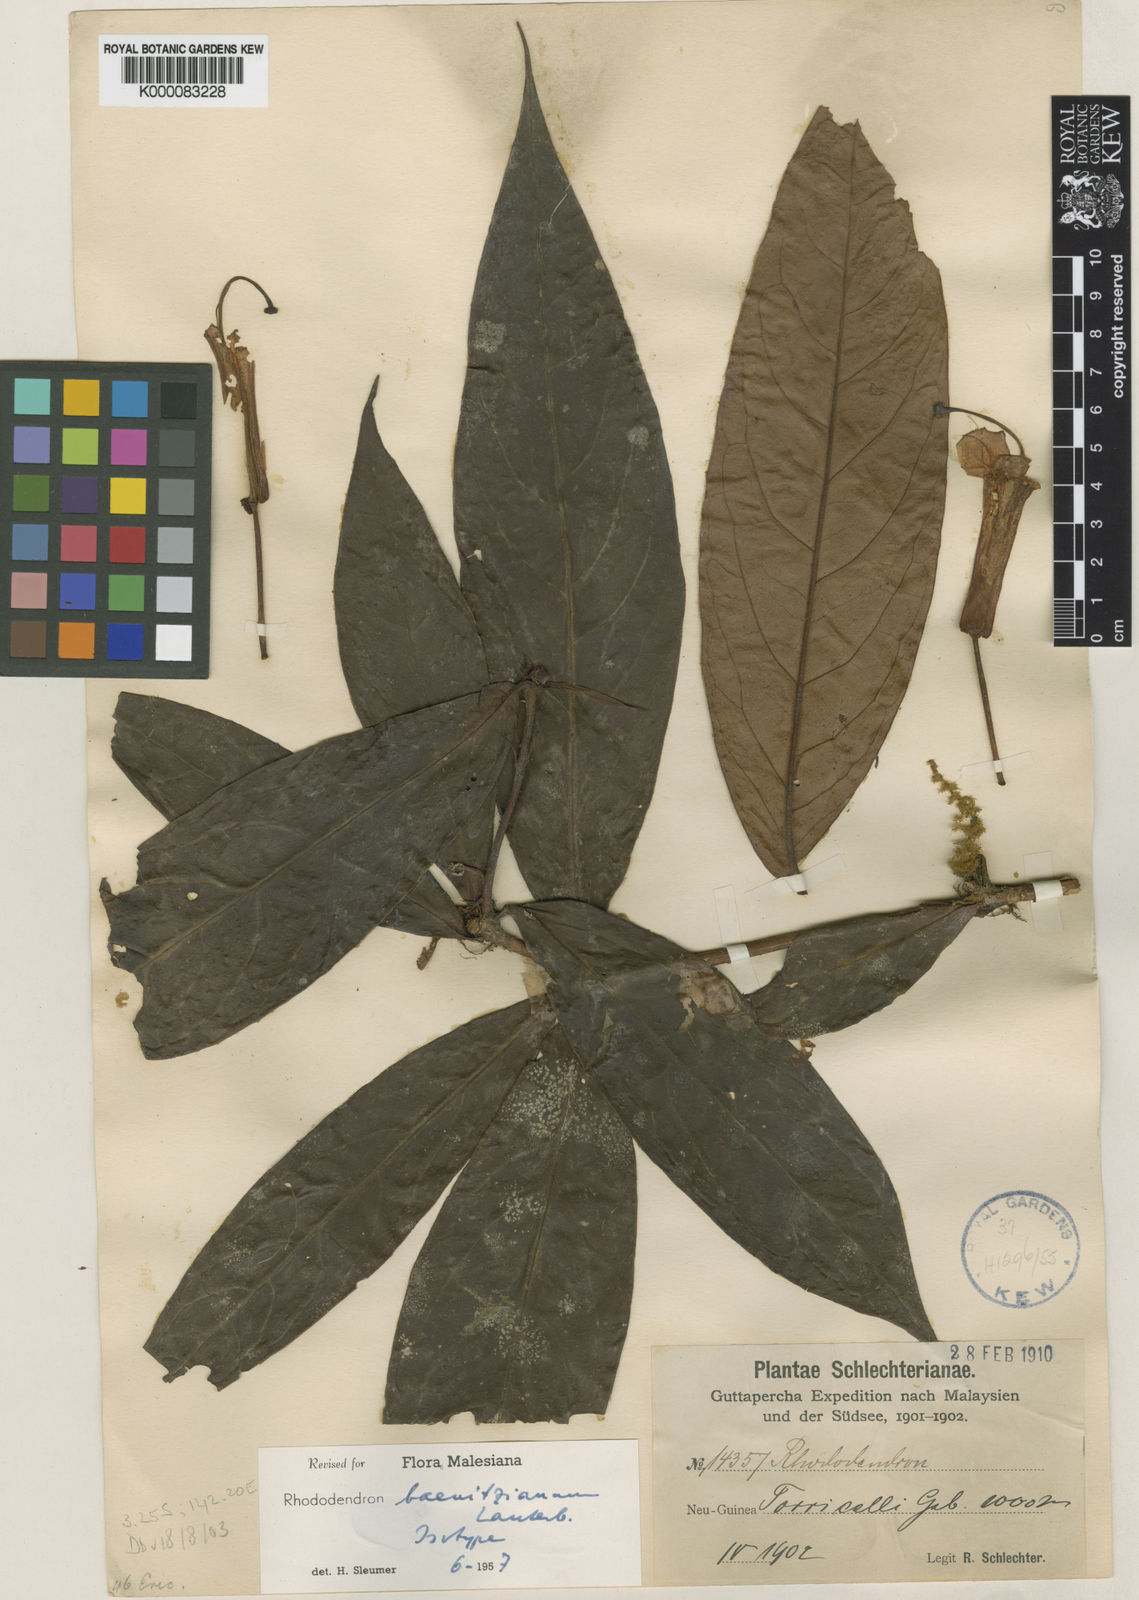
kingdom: Plantae
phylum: Tracheophyta
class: Magnoliopsida
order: Ericales
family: Ericaceae
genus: Rhododendron
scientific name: Rhododendron baenitzianum
